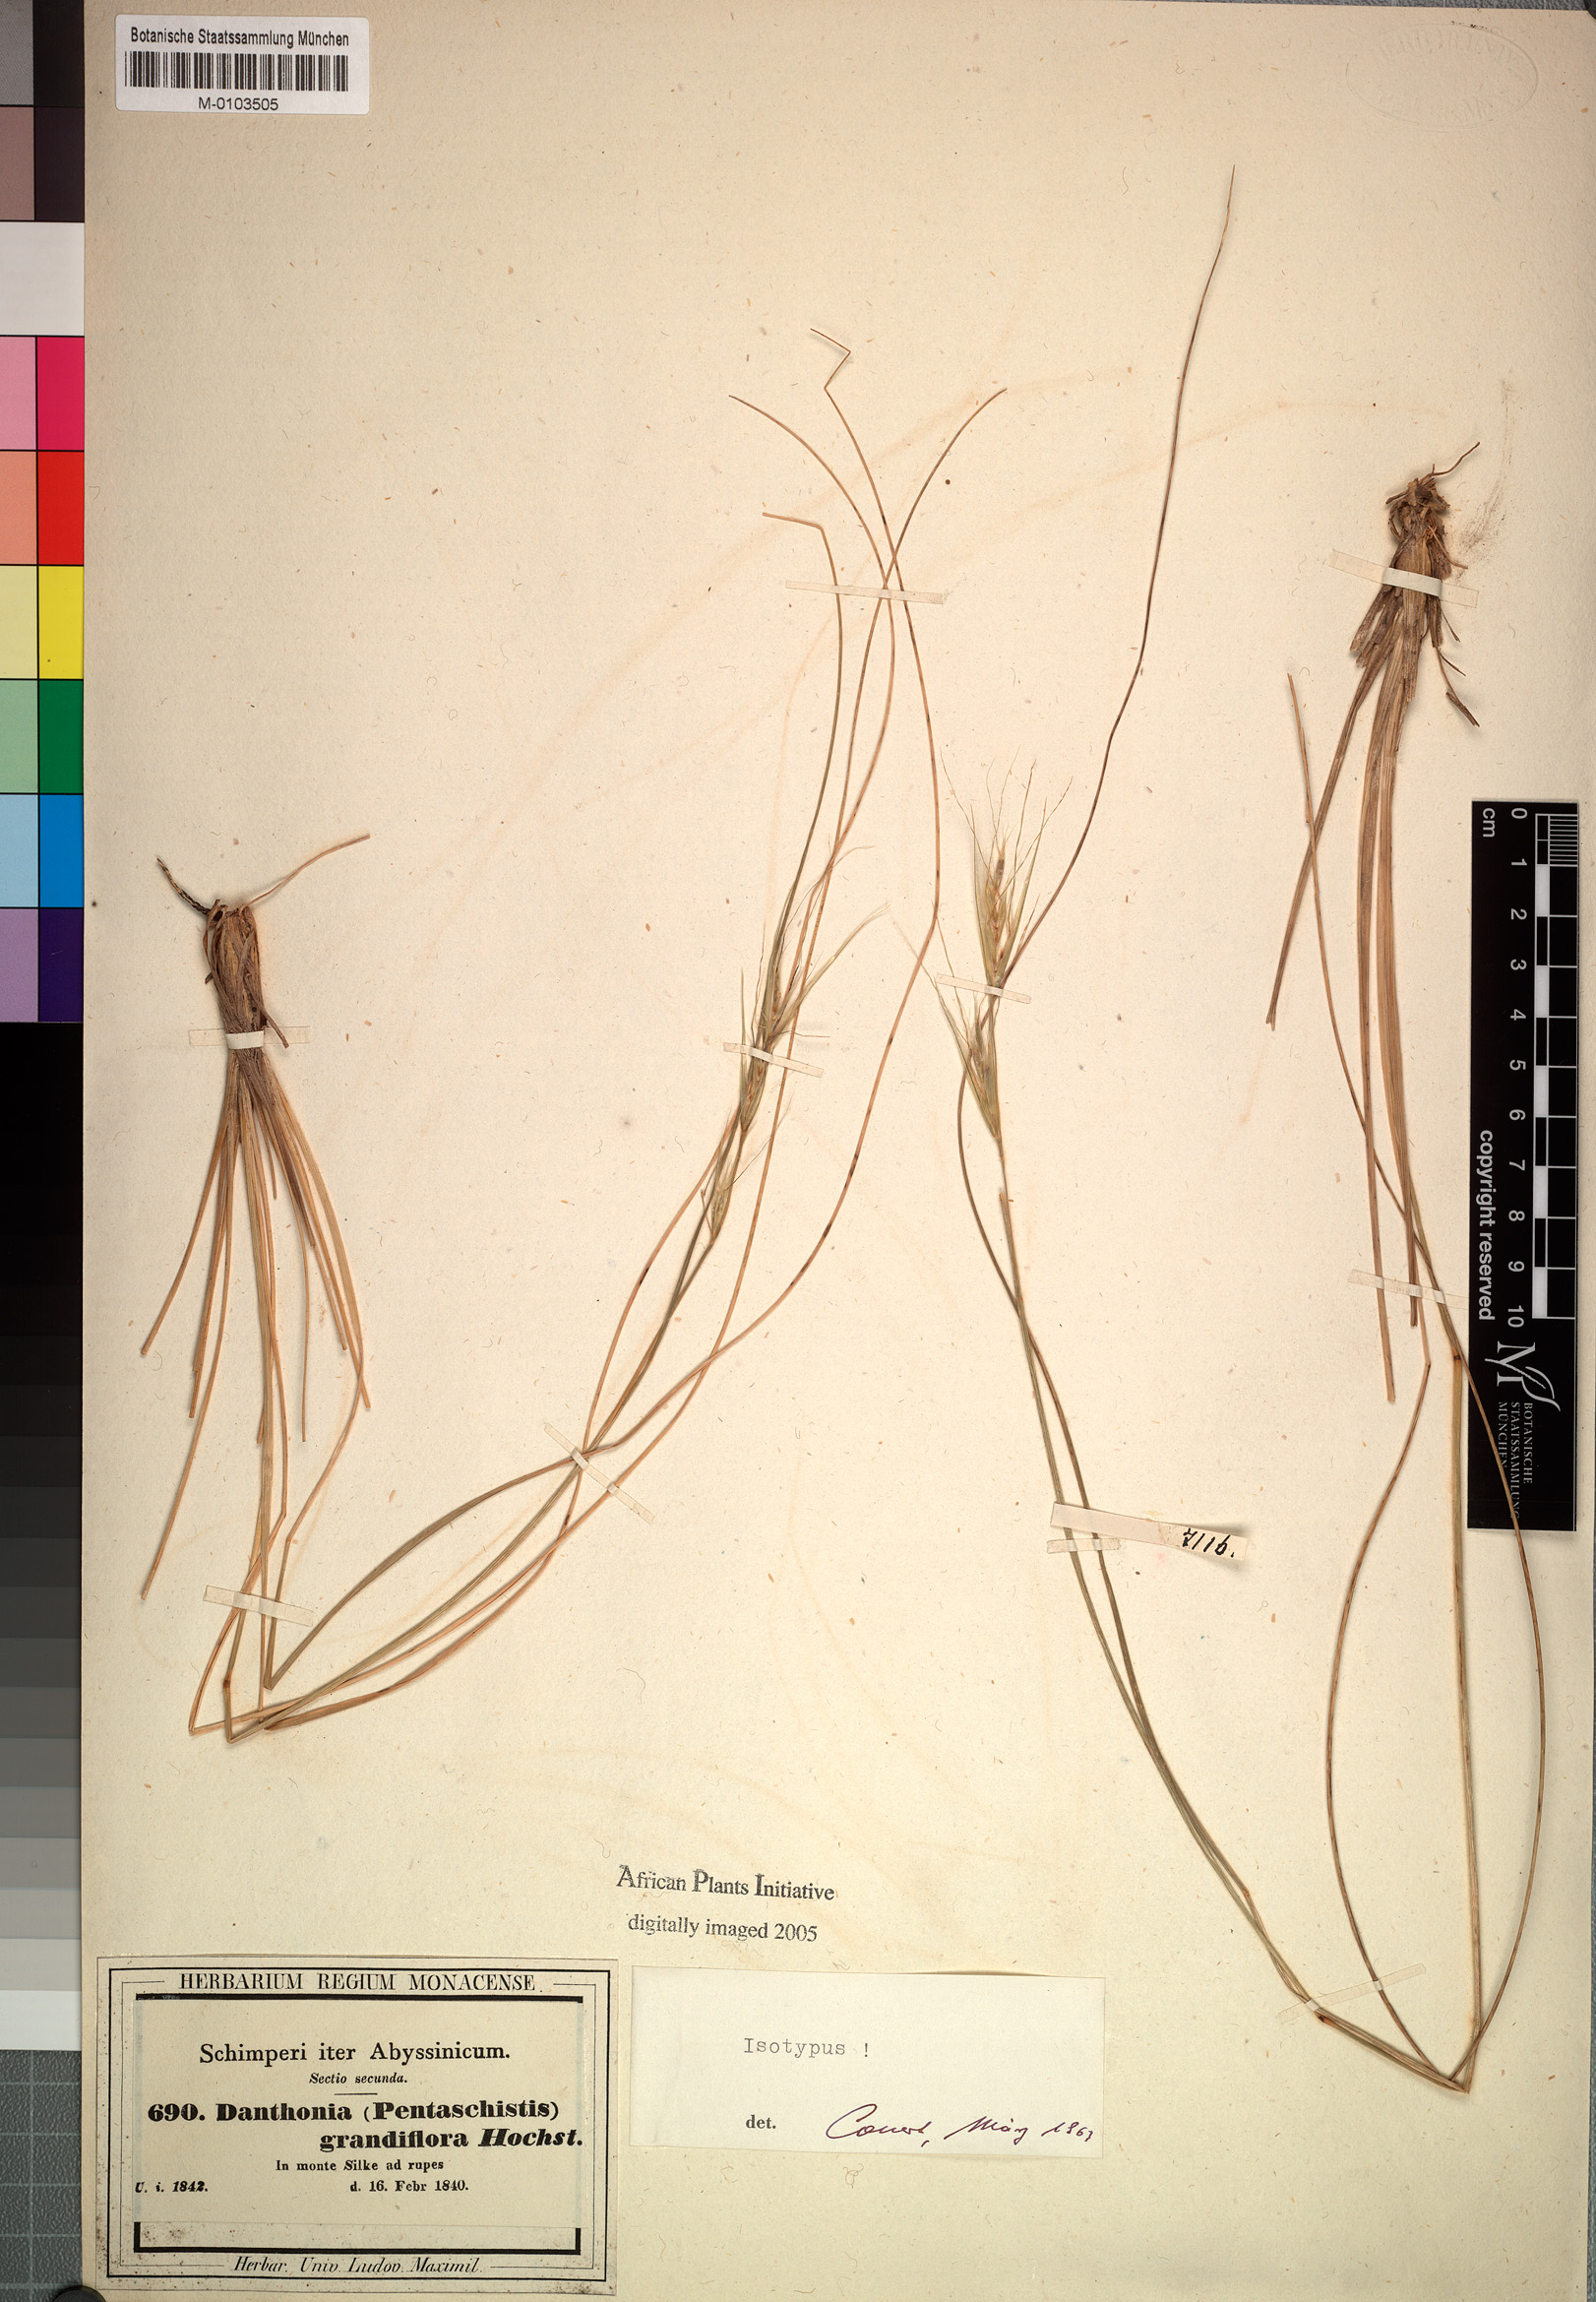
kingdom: Plantae
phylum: Tracheophyta
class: Liliopsida
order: Poales
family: Poaceae
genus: Merxmuellera
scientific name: Merxmuellera grandiflora
